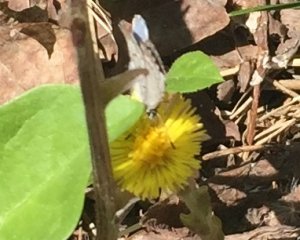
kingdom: Animalia
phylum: Arthropoda
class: Insecta
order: Lepidoptera
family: Lycaenidae
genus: Celastrina
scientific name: Celastrina lucia
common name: Northern Spring Azure
